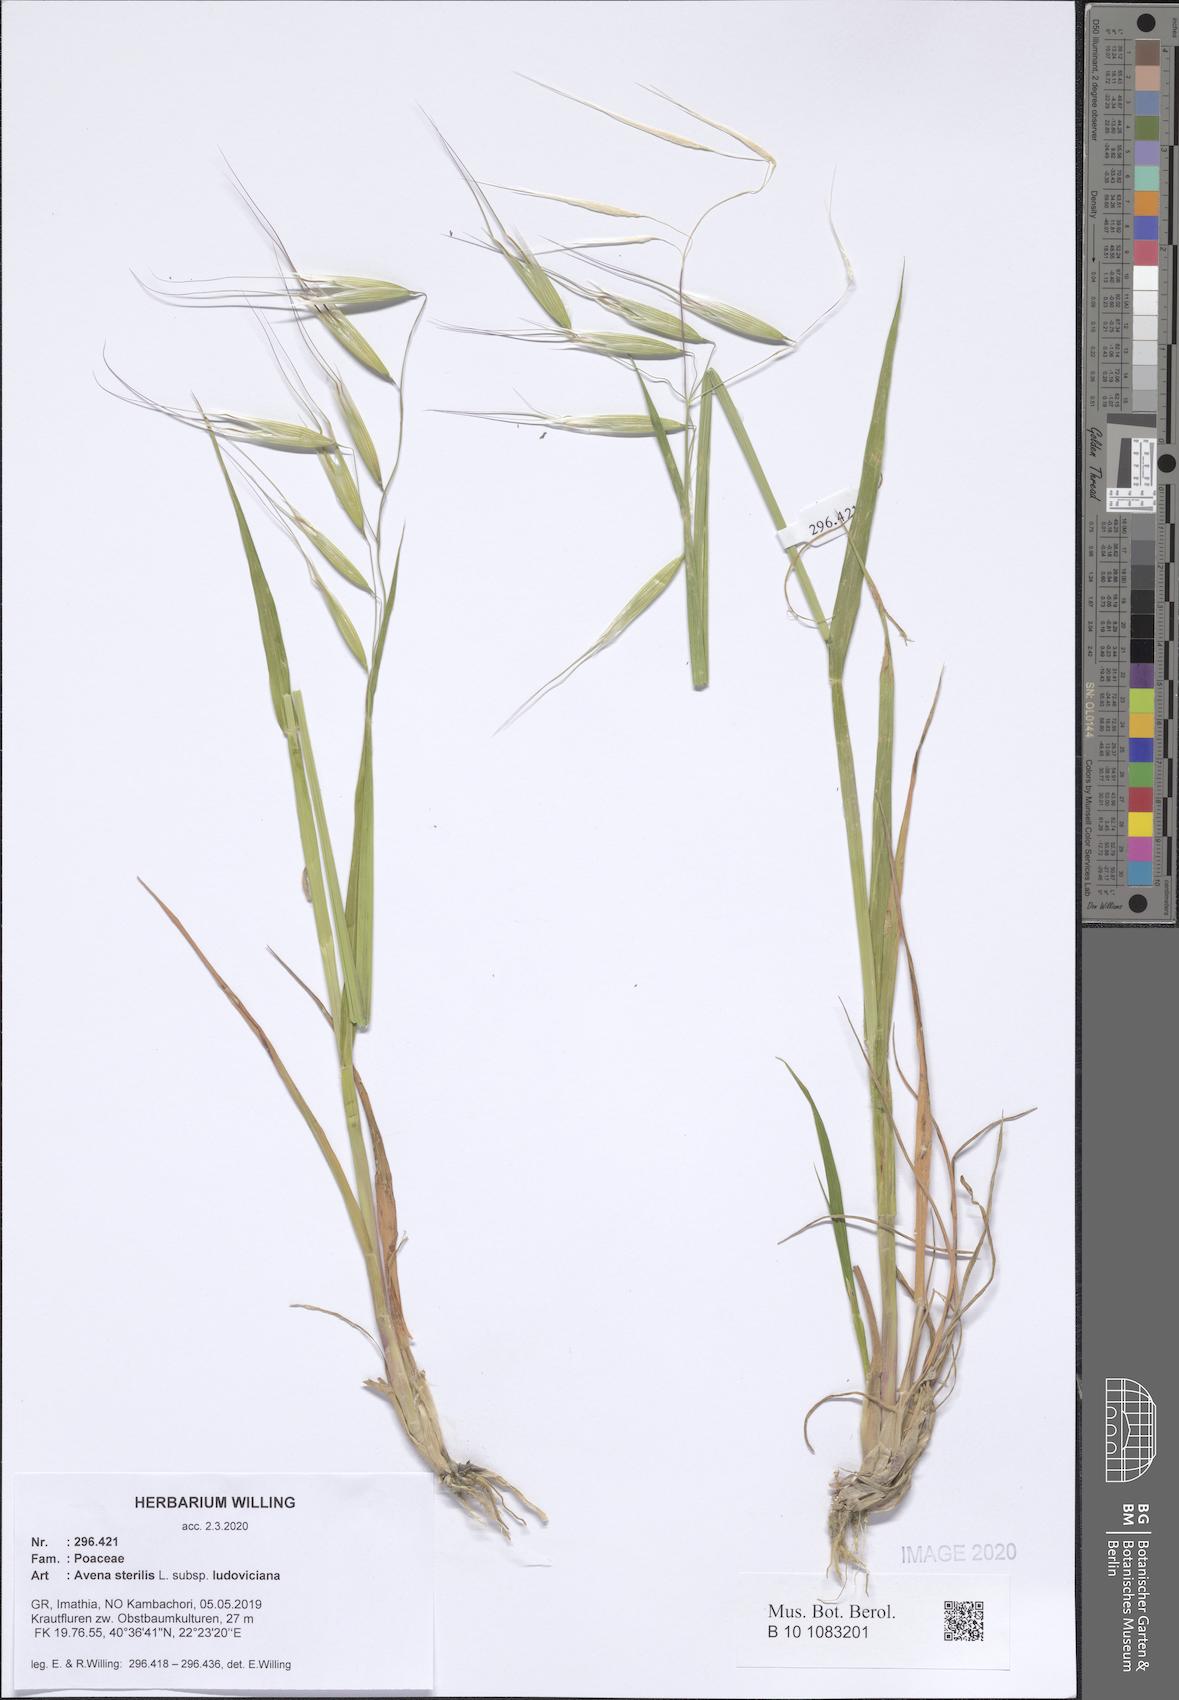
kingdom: Plantae
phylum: Tracheophyta
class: Liliopsida
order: Poales
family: Poaceae
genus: Avena
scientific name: Avena sterilis
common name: Animated oat
